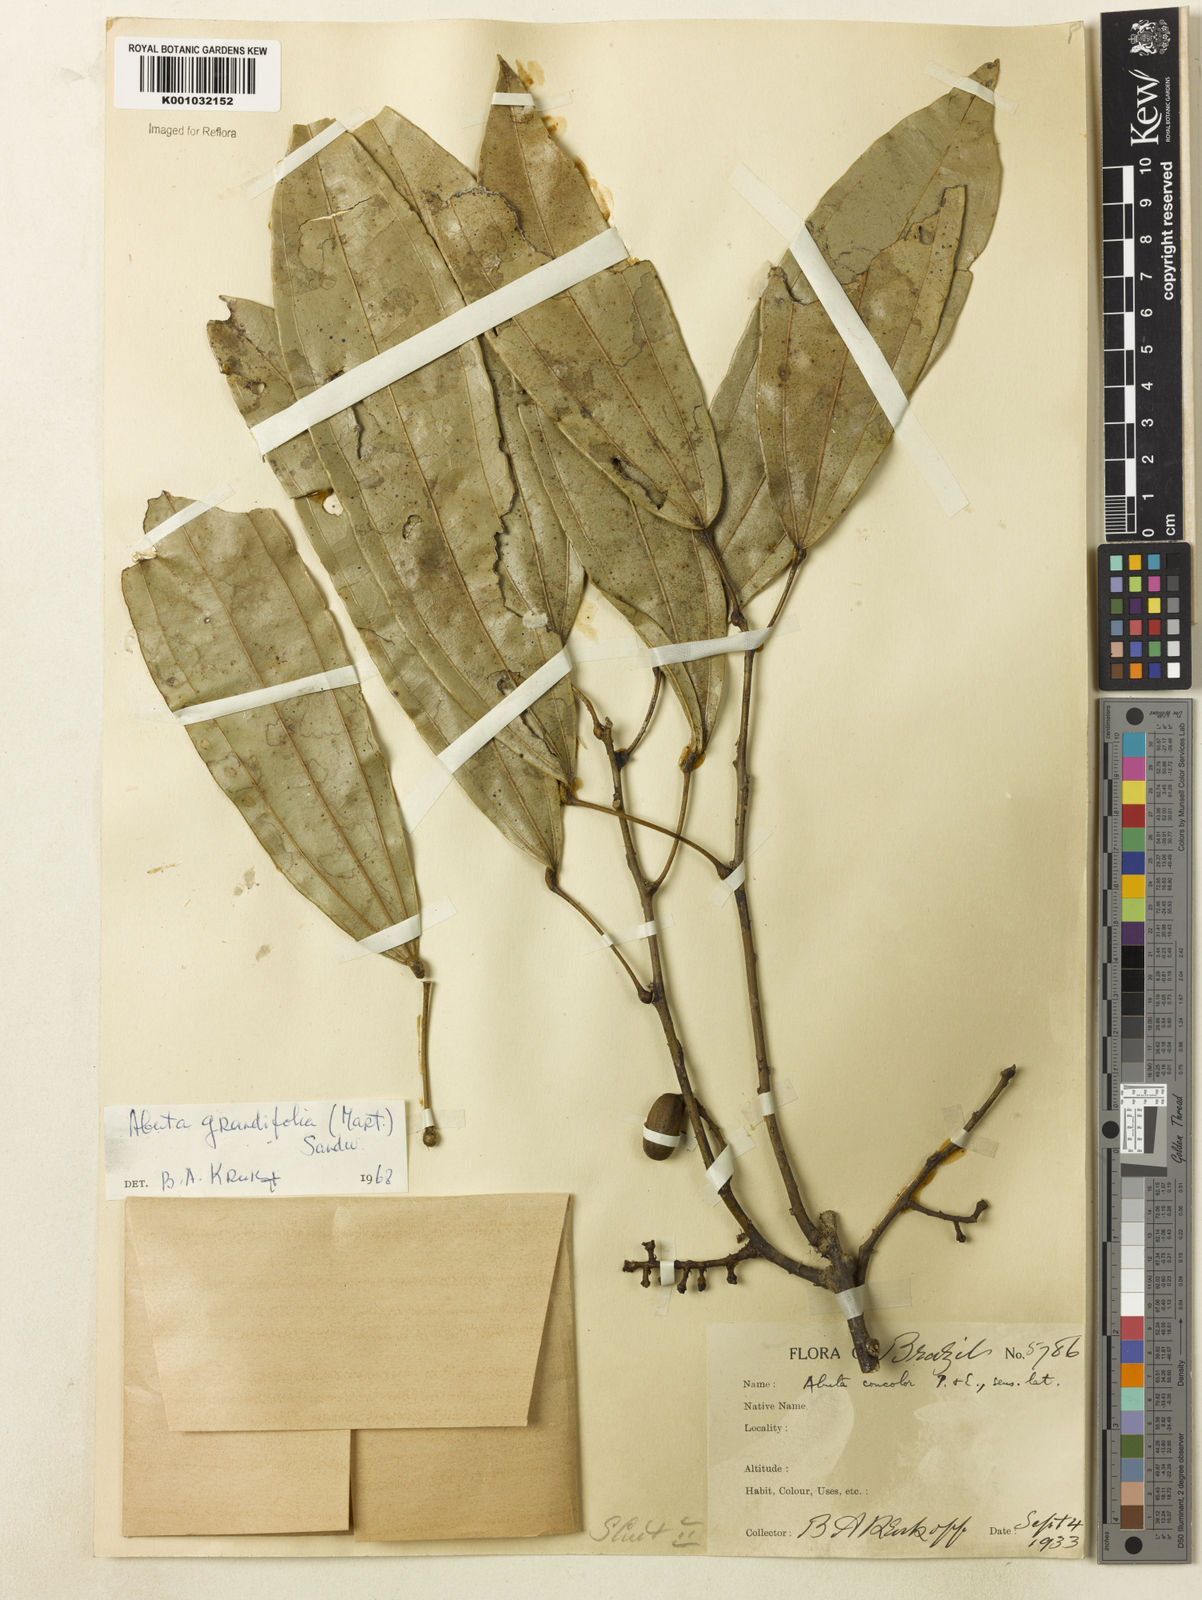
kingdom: Plantae
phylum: Tracheophyta
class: Magnoliopsida
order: Ranunculales
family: Menispermaceae
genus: Abuta
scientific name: Abuta grandifolia
